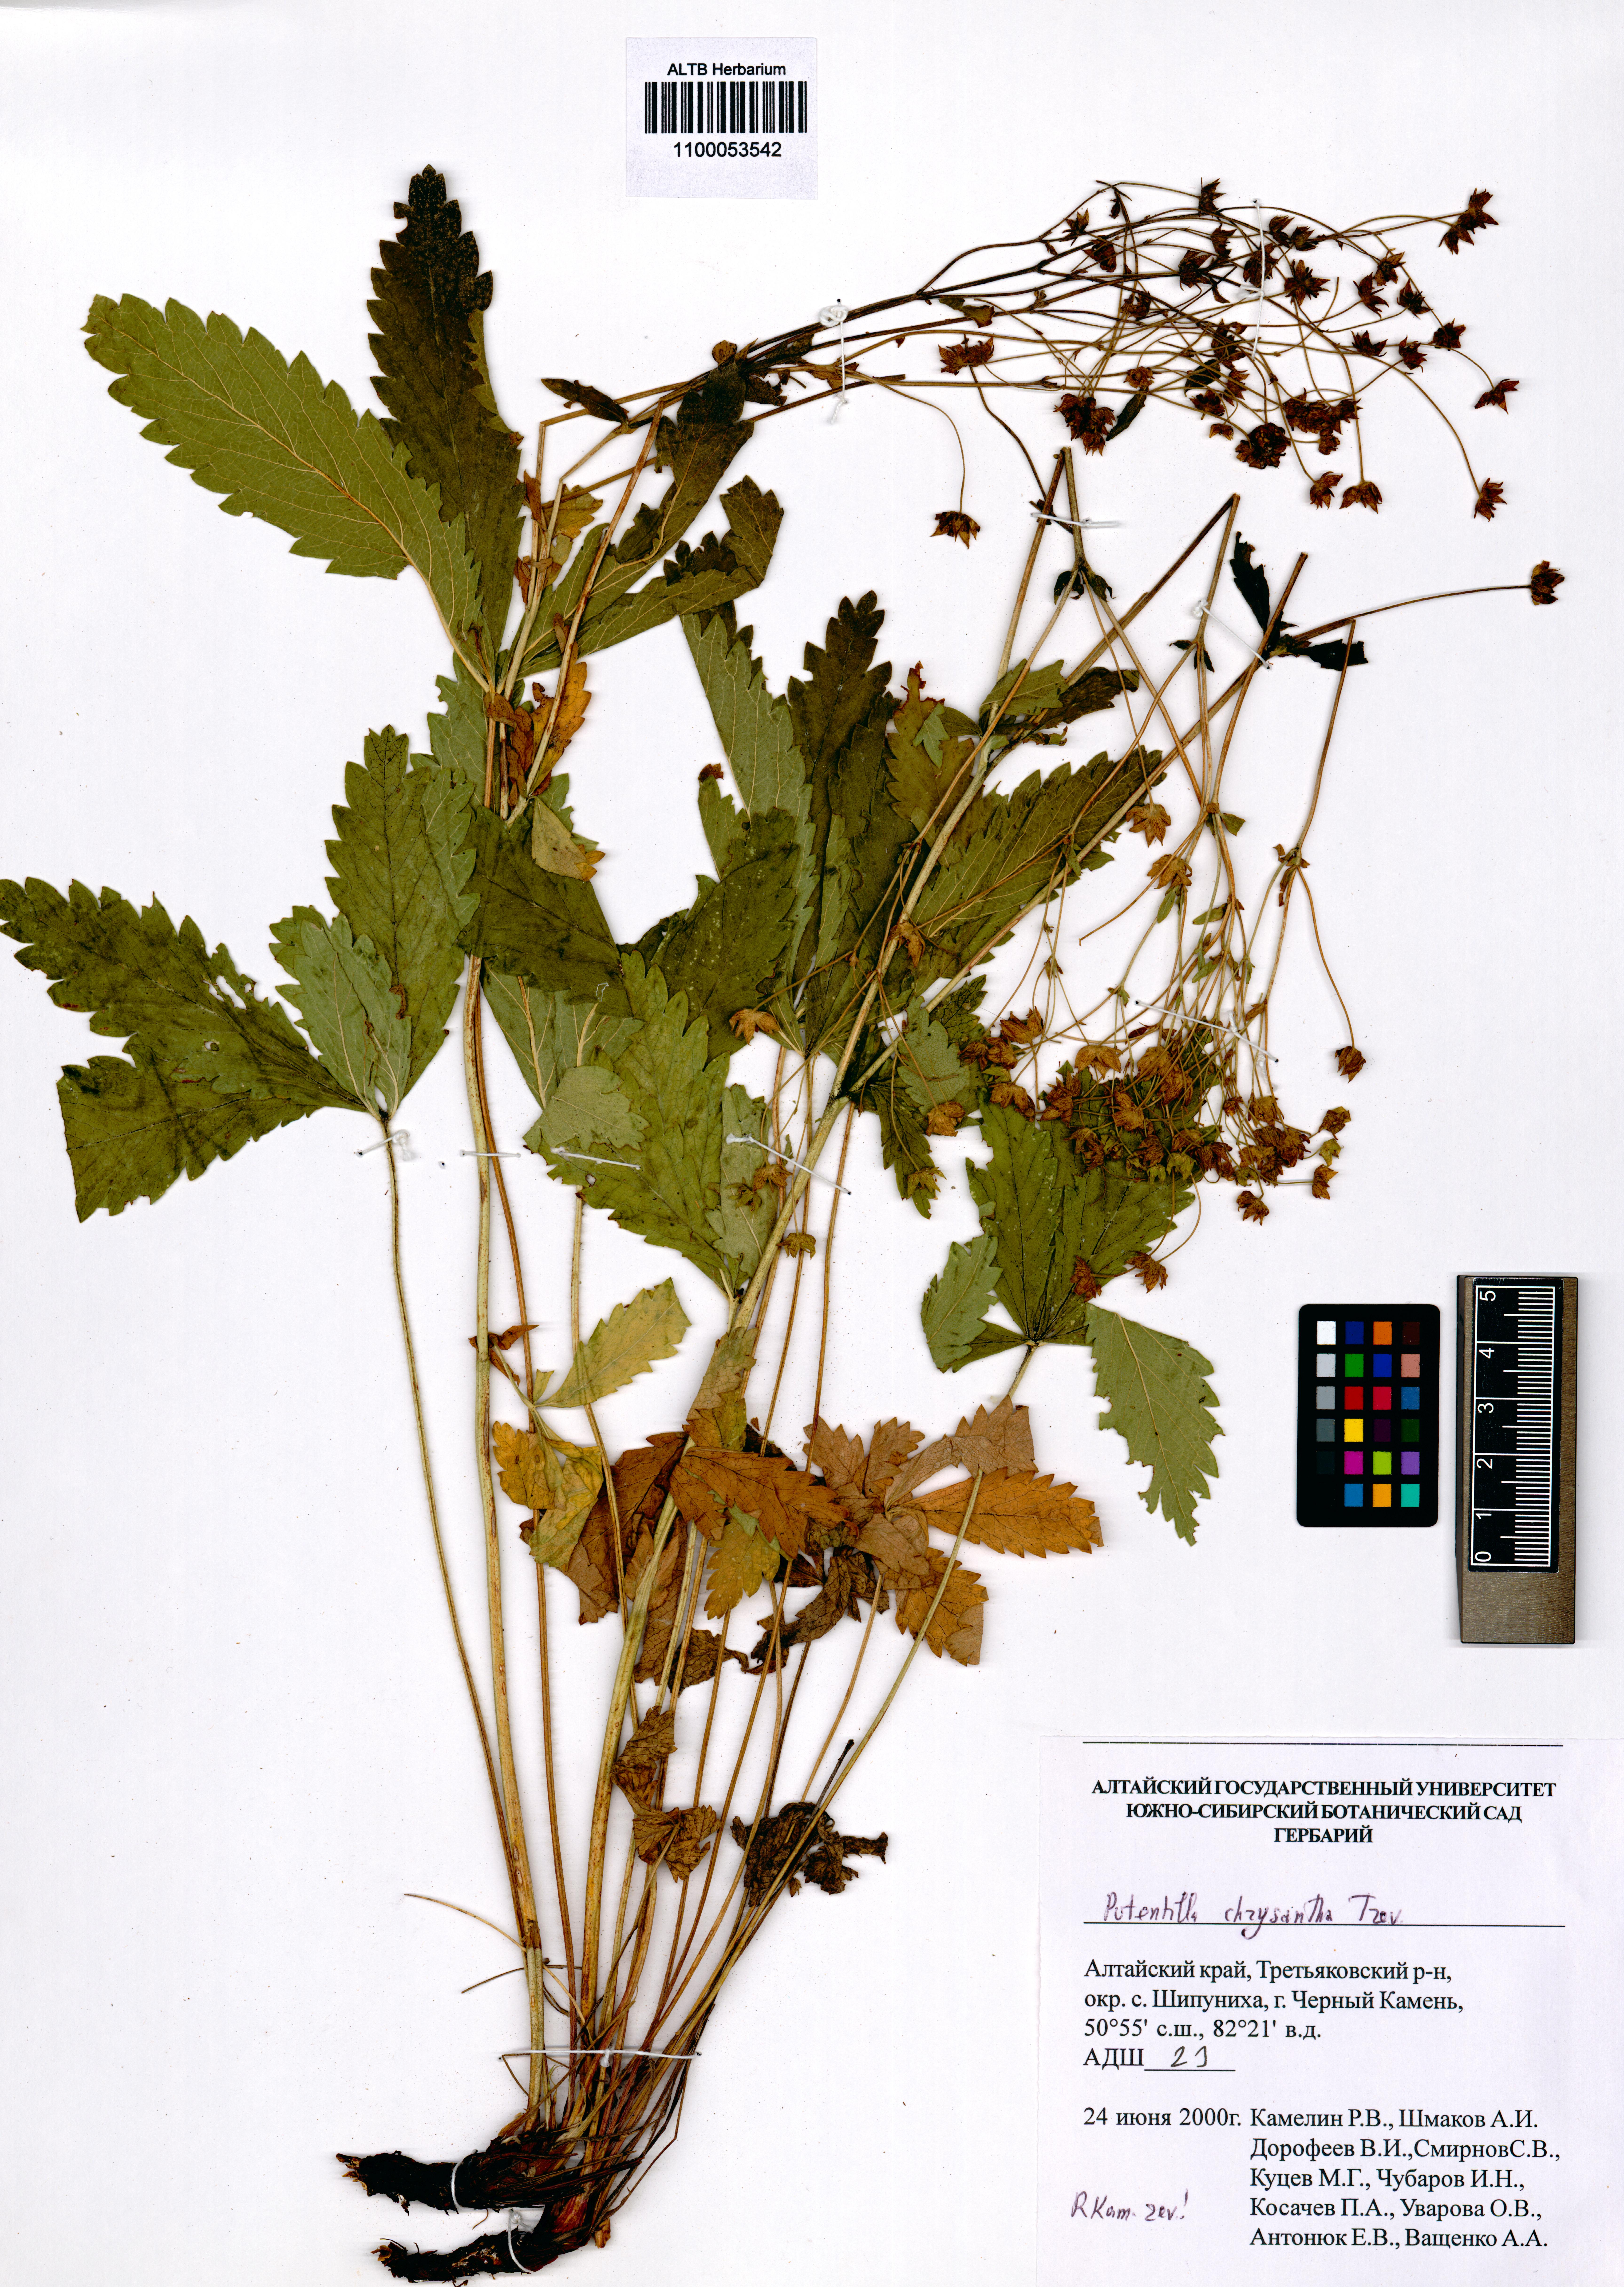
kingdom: Plantae
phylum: Tracheophyta
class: Magnoliopsida
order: Rosales
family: Rosaceae
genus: Potentilla
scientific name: Potentilla chrysantha
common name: Thuringian cinquefoil
